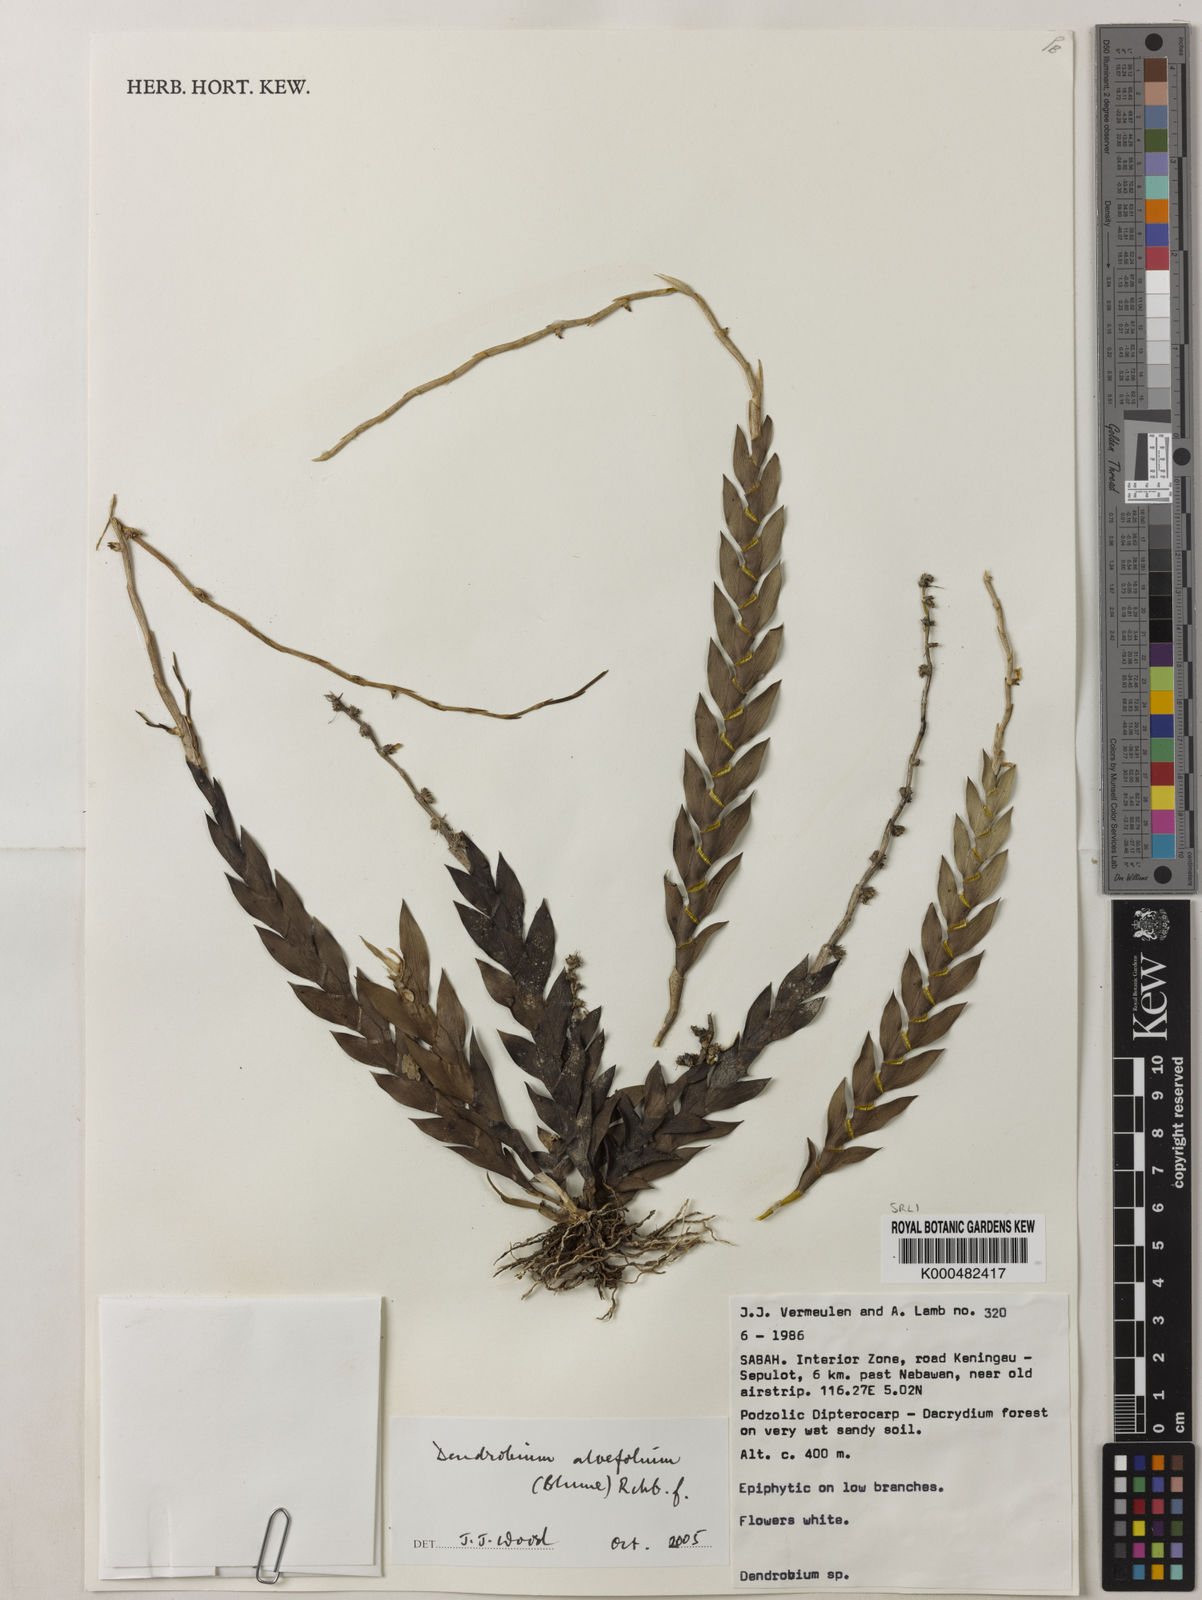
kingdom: Plantae
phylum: Tracheophyta
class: Liliopsida
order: Asparagales
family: Orchidaceae
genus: Dendrobium
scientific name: Dendrobium aloifolium
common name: Aloe-like dendrobium
